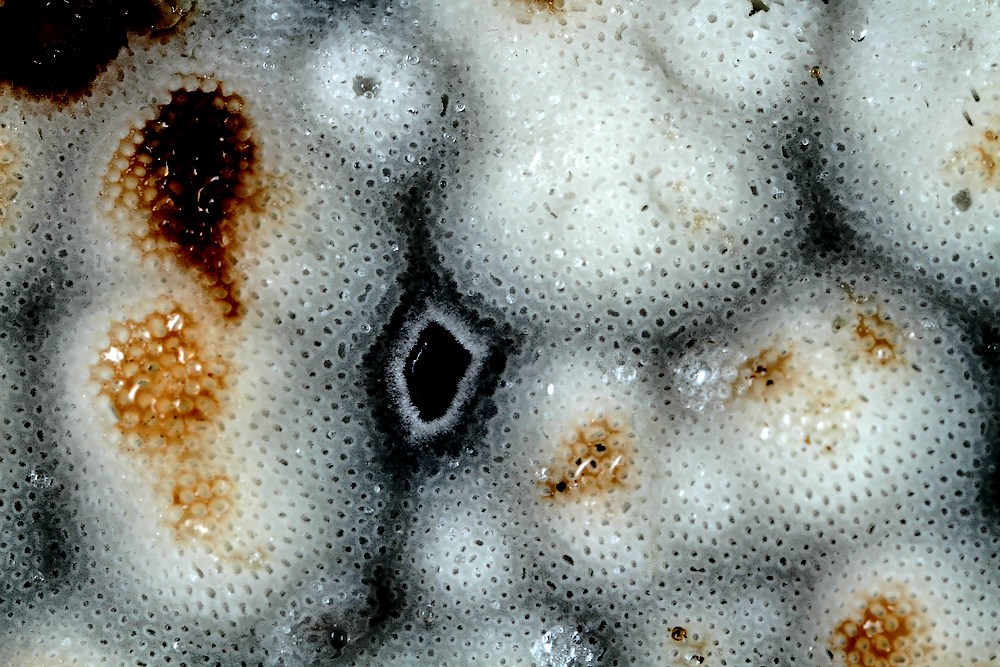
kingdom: Fungi
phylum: Basidiomycota
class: Agaricomycetes
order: Polyporales
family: Meripilaceae
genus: Rigidoporus
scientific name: Rigidoporus sanguinolentus
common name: blod-skorpeporesvamp
